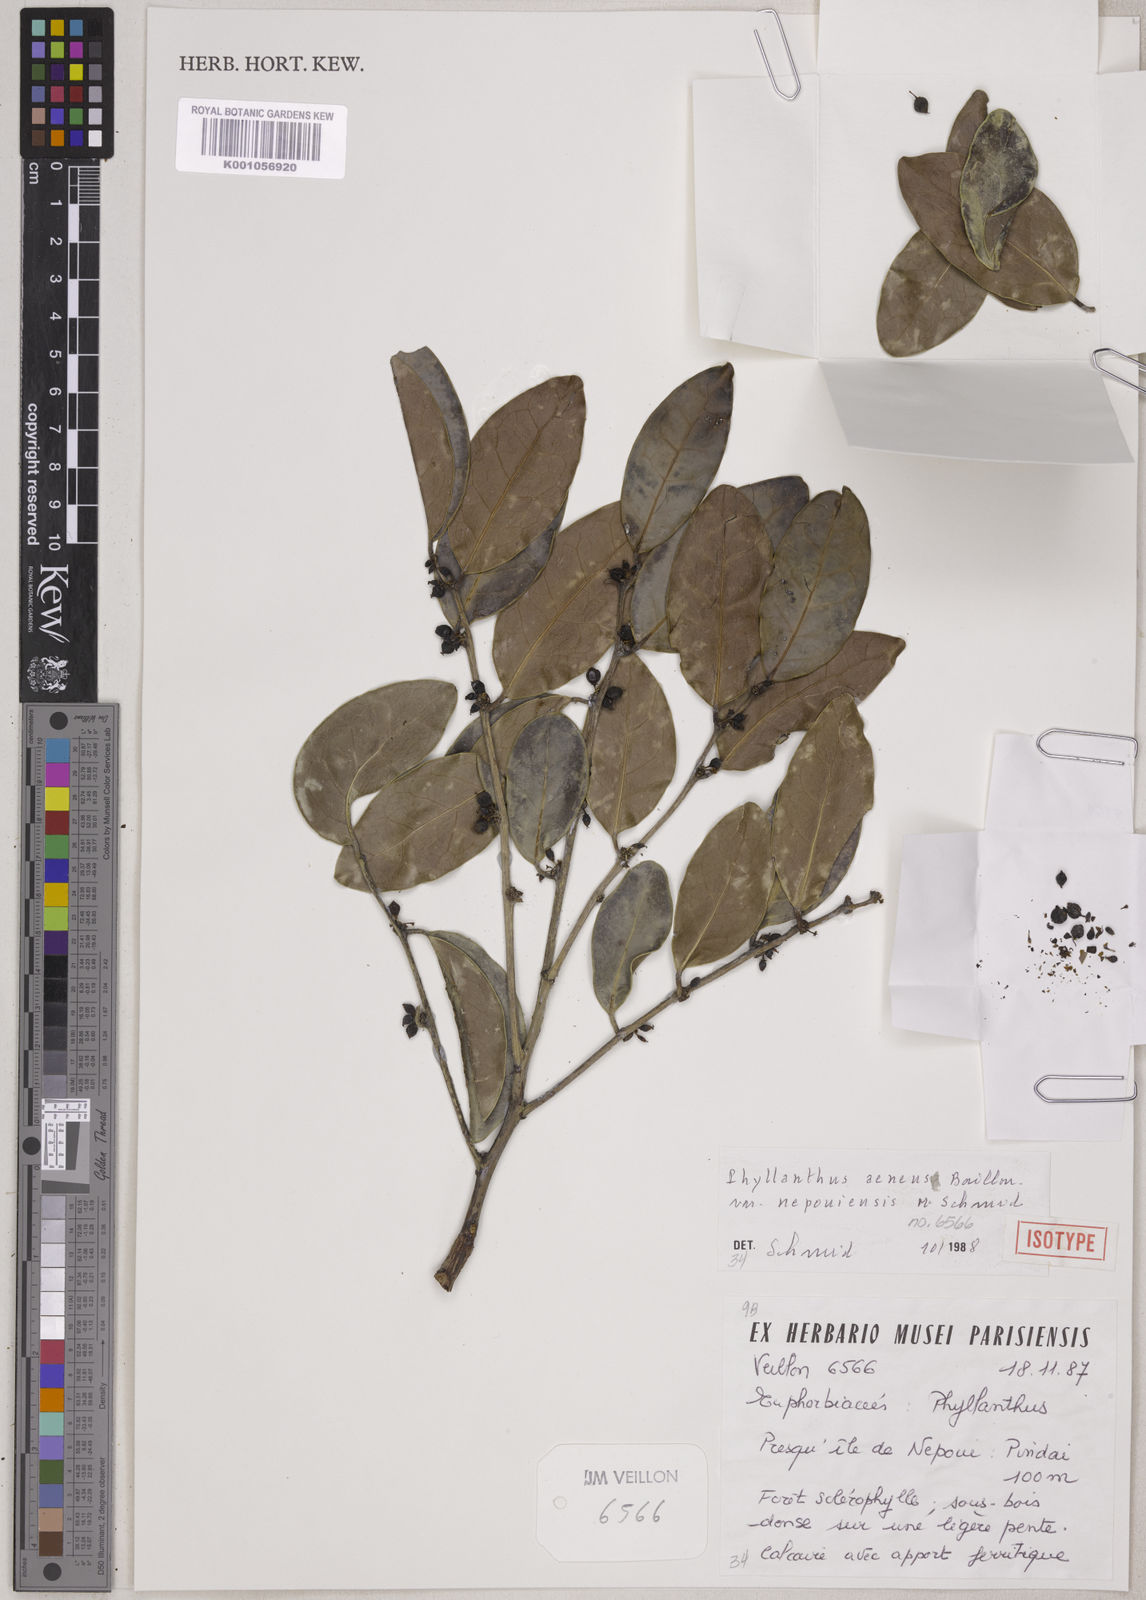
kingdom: Plantae
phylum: Tracheophyta
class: Magnoliopsida
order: Malpighiales
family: Phyllanthaceae
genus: Phyllanthus
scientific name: Phyllanthus aeneus
